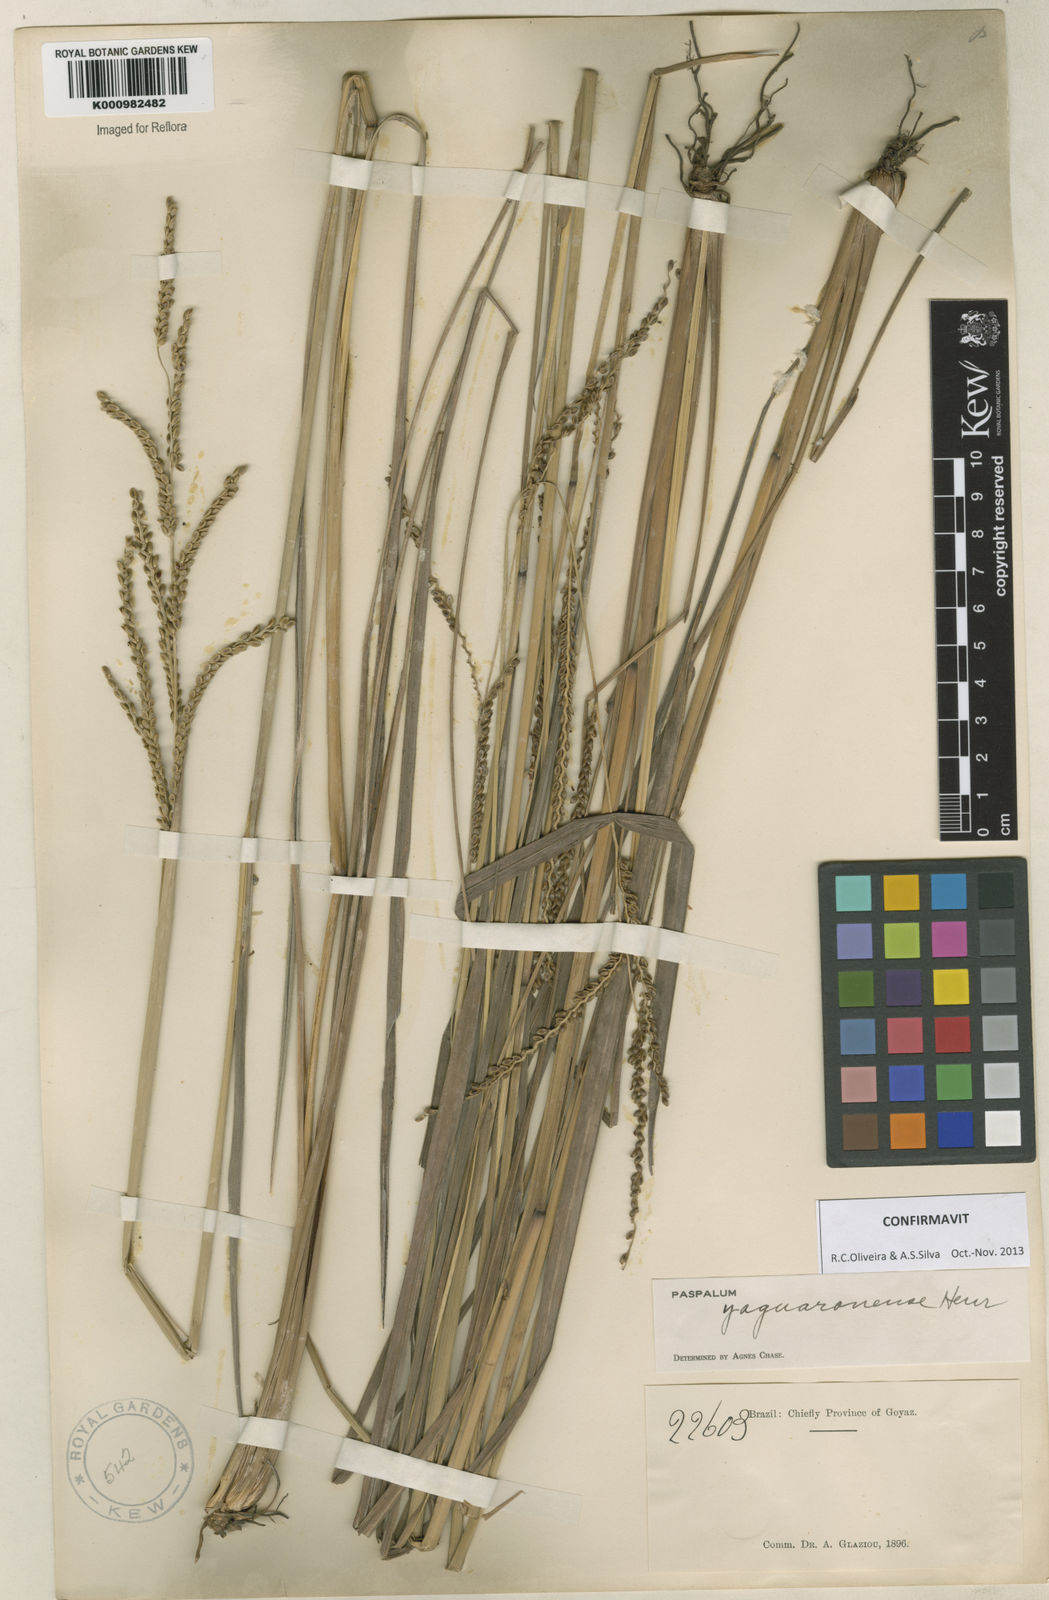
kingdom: Plantae
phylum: Tracheophyta
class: Liliopsida
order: Poales
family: Poaceae
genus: Paspalum
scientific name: Paspalum glaucescens
